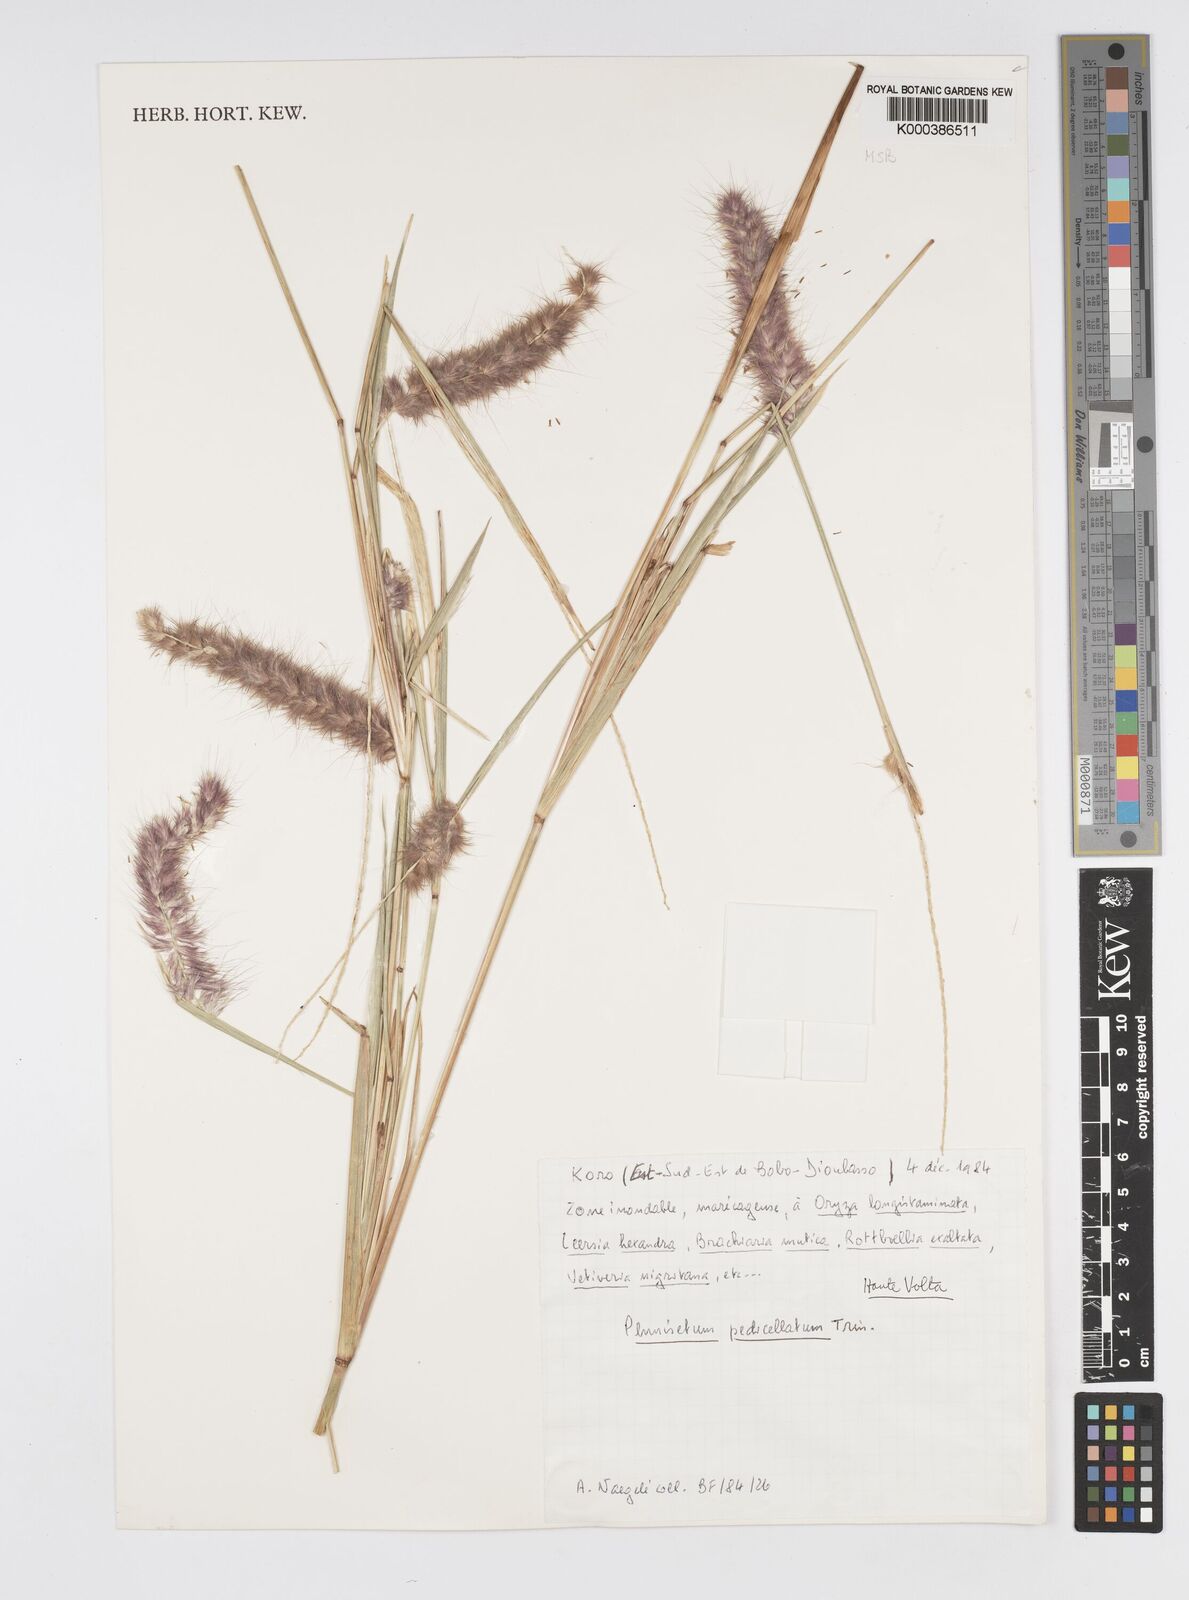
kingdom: Plantae
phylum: Tracheophyta
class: Liliopsida
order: Poales
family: Poaceae
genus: Cenchrus
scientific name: Cenchrus pedicellatus
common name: Hairy fountain grass
